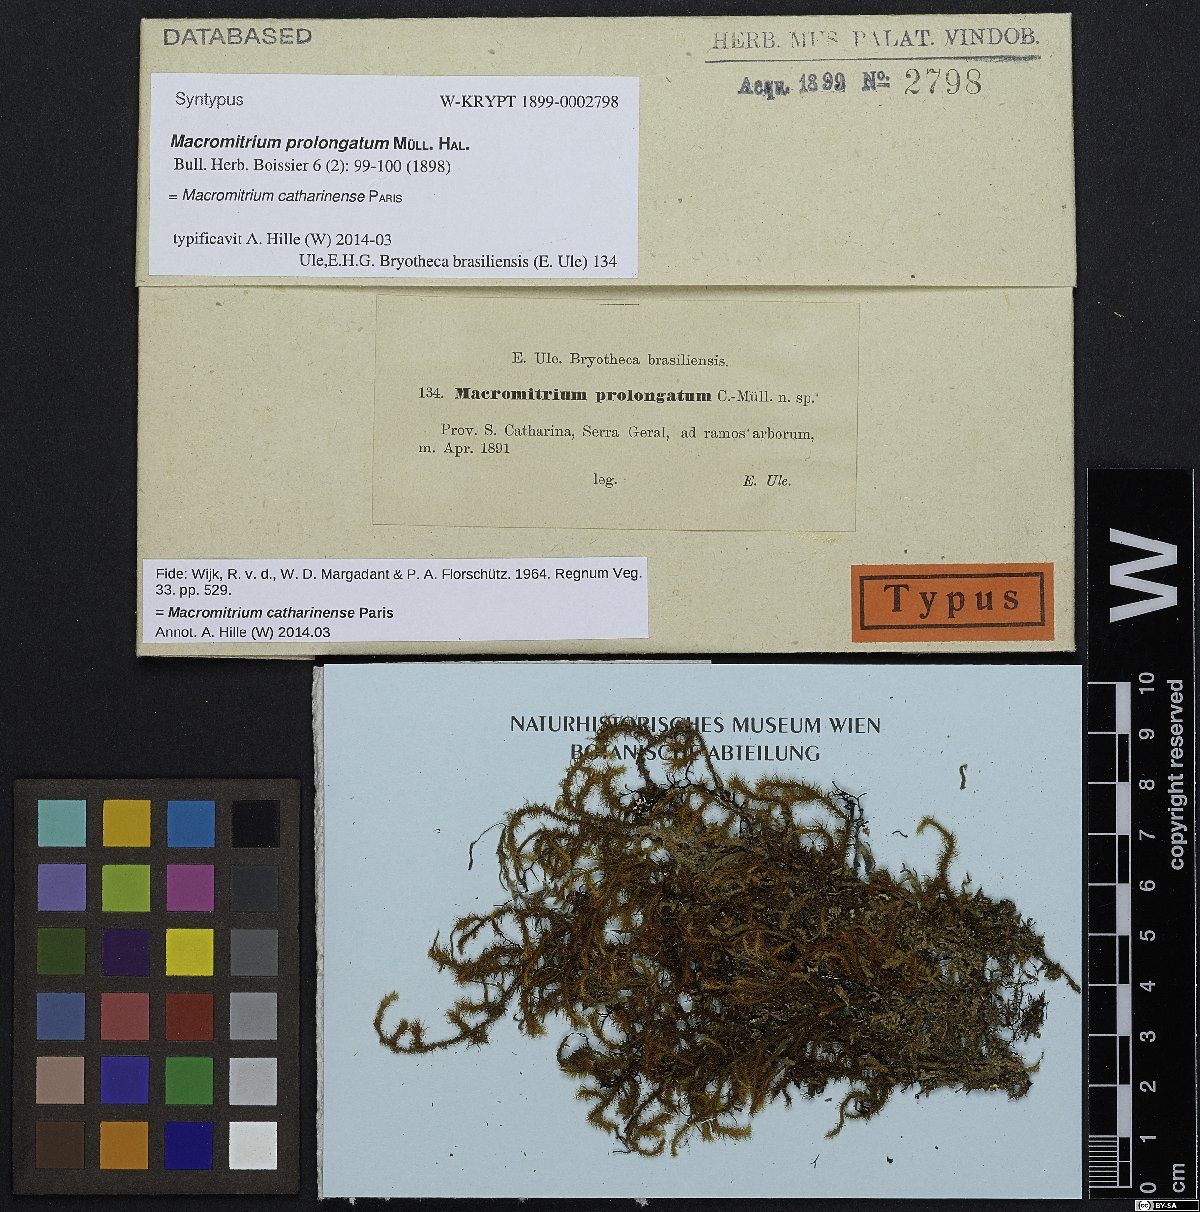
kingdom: Plantae
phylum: Bryophyta
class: Bryopsida
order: Orthotrichales
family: Orthotrichaceae
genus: Macromitrium
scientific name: Macromitrium catharinense
